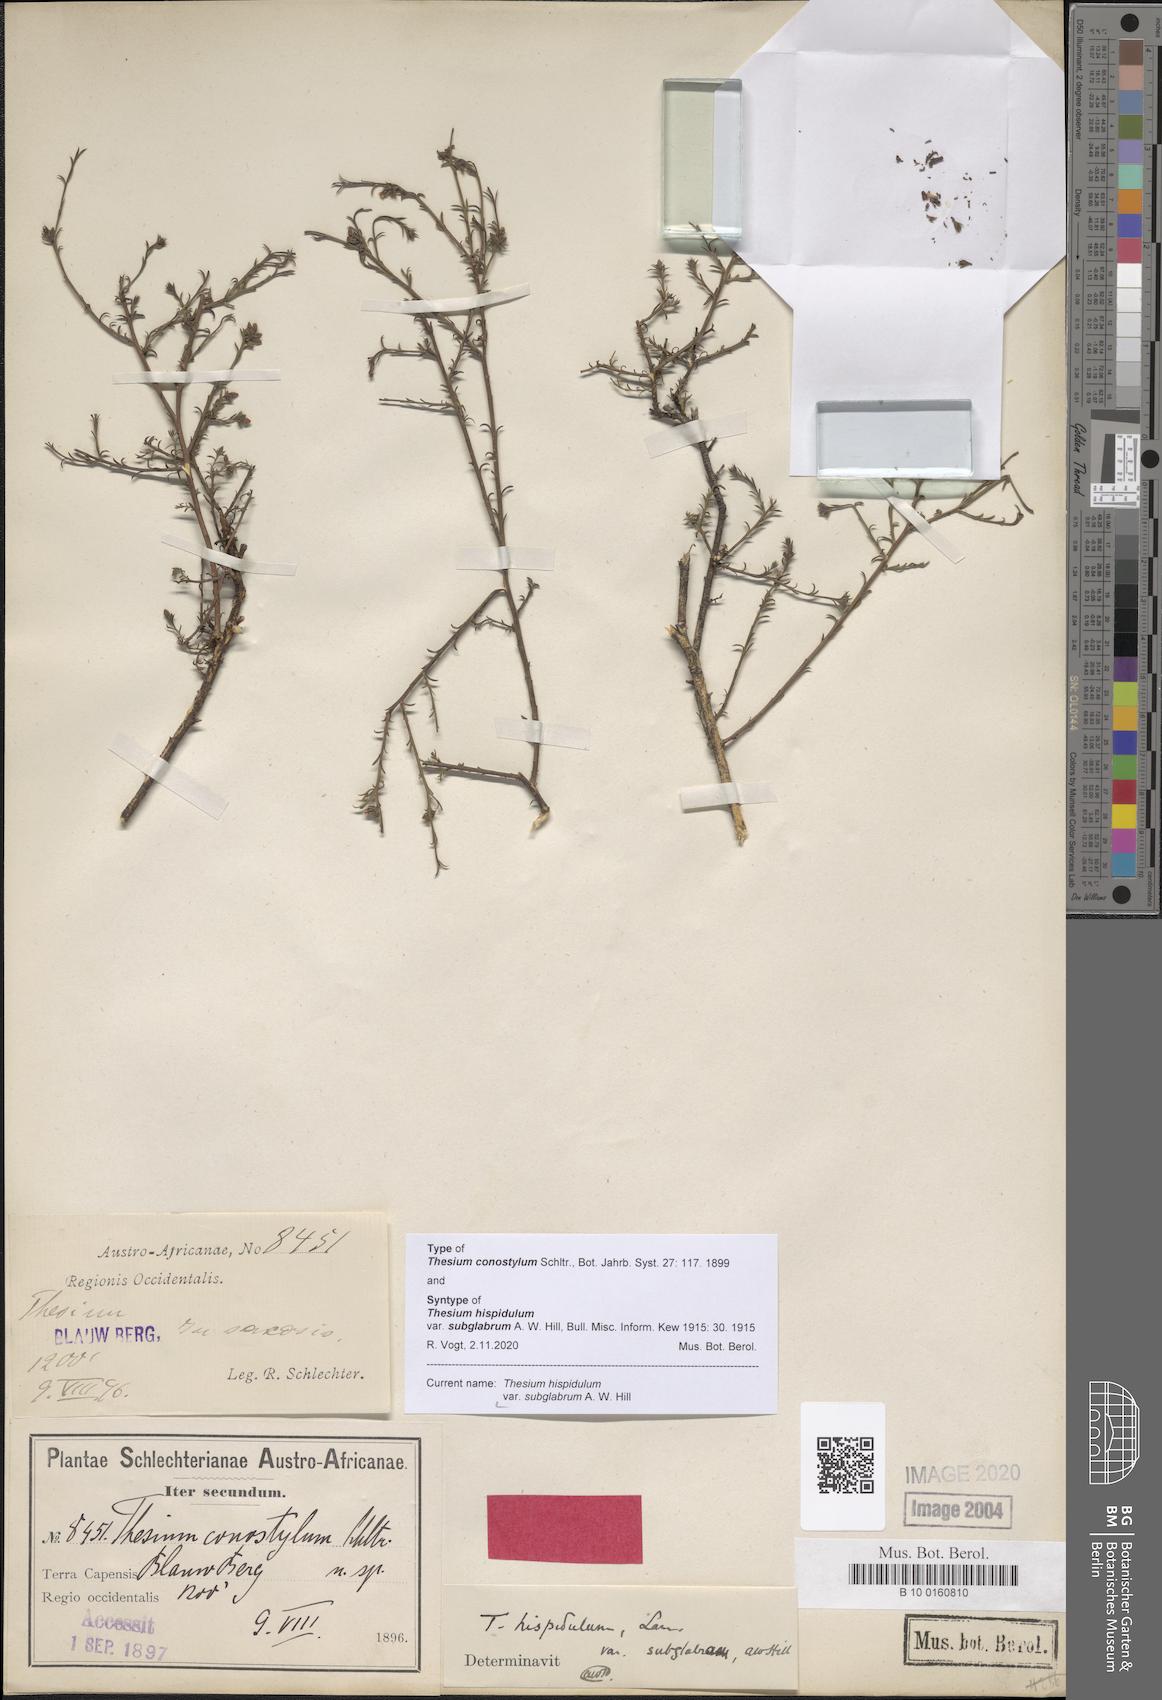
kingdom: Plantae
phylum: Tracheophyta
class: Magnoliopsida
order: Santalales
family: Thesiaceae
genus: Thesium
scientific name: Thesium hispidulum
